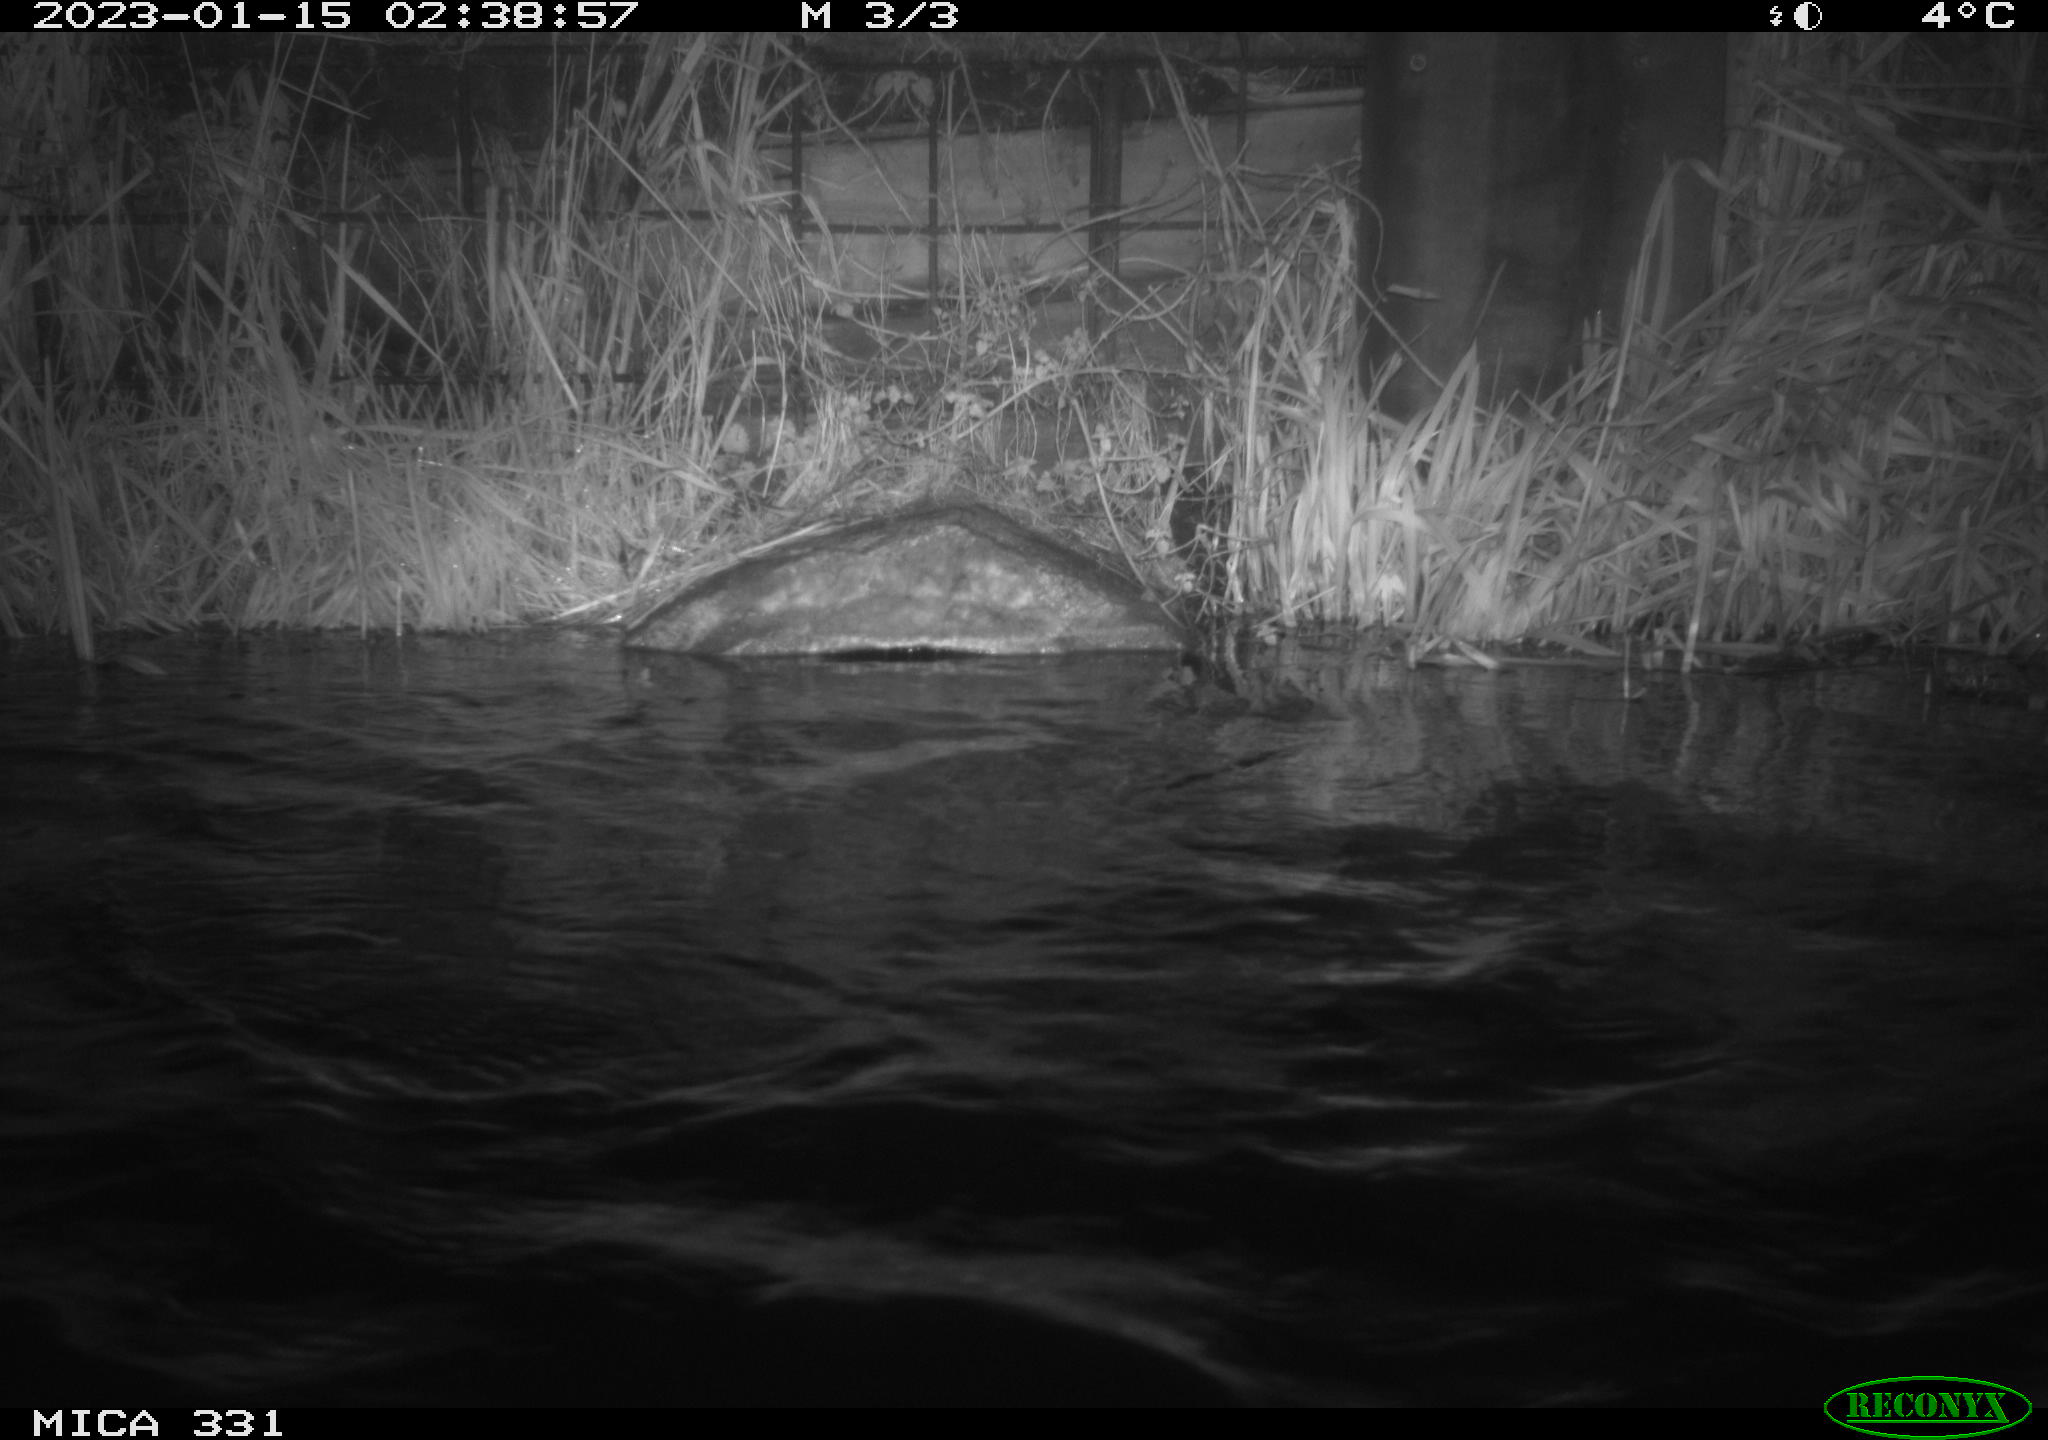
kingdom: Animalia
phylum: Chordata
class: Mammalia
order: Rodentia
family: Muridae
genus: Rattus
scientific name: Rattus norvegicus
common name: Brown rat
